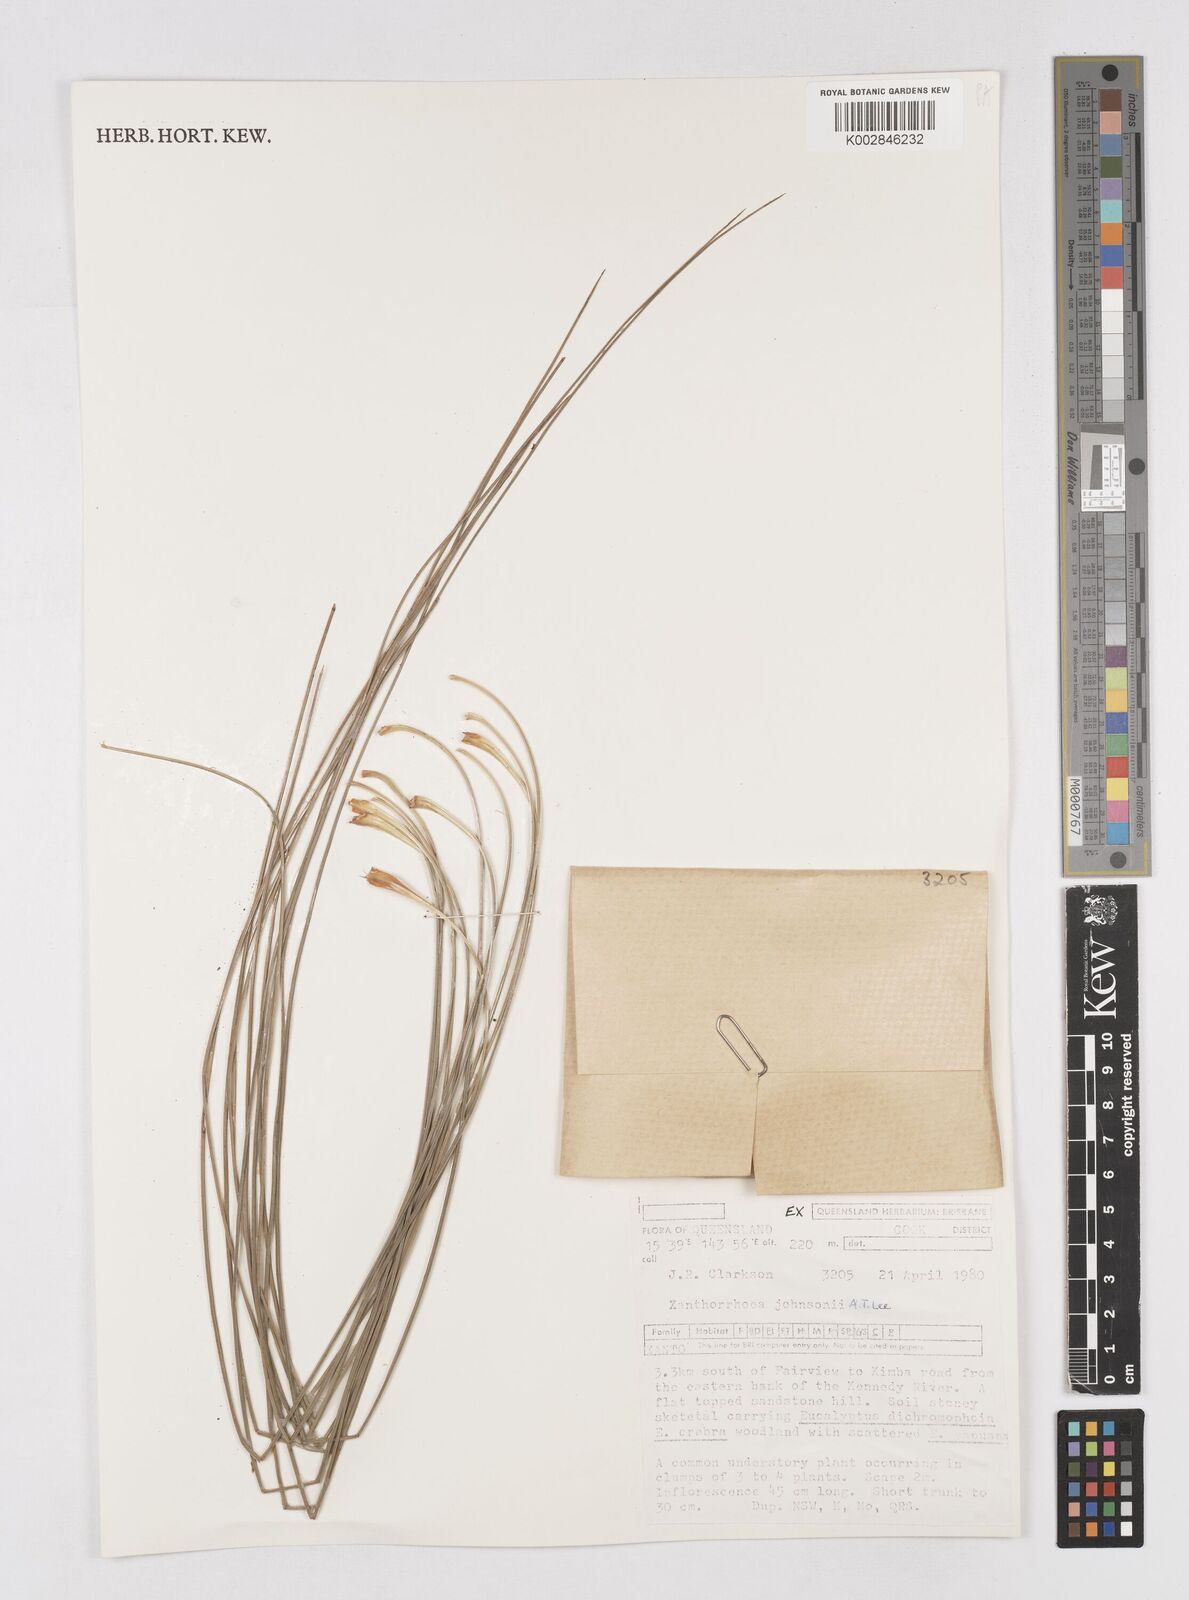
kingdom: Plantae
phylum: Tracheophyta
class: Liliopsida
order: Asparagales
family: Asphodelaceae
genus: Xanthorrhoea
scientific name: Xanthorrhoea johnsonii
